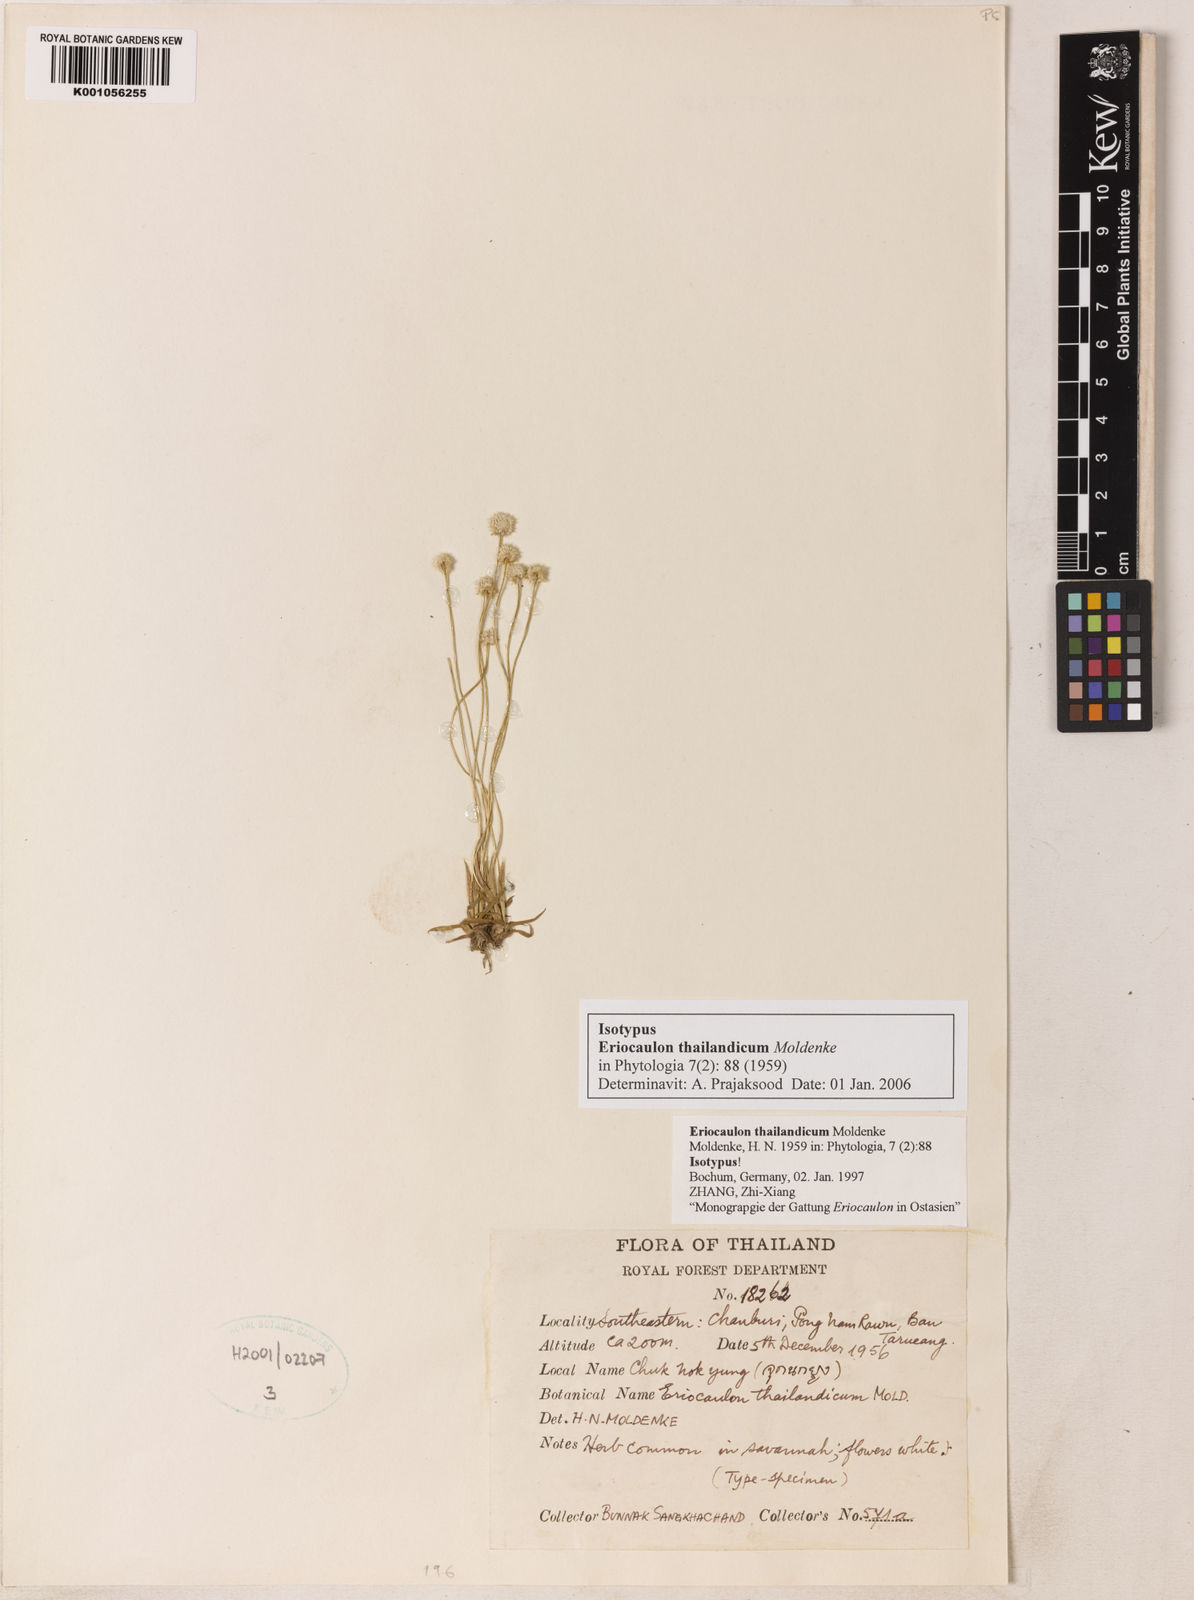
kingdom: Plantae
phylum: Tracheophyta
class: Liliopsida
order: Poales
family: Eriocaulaceae
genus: Eriocaulon
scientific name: Eriocaulon thailandicum
